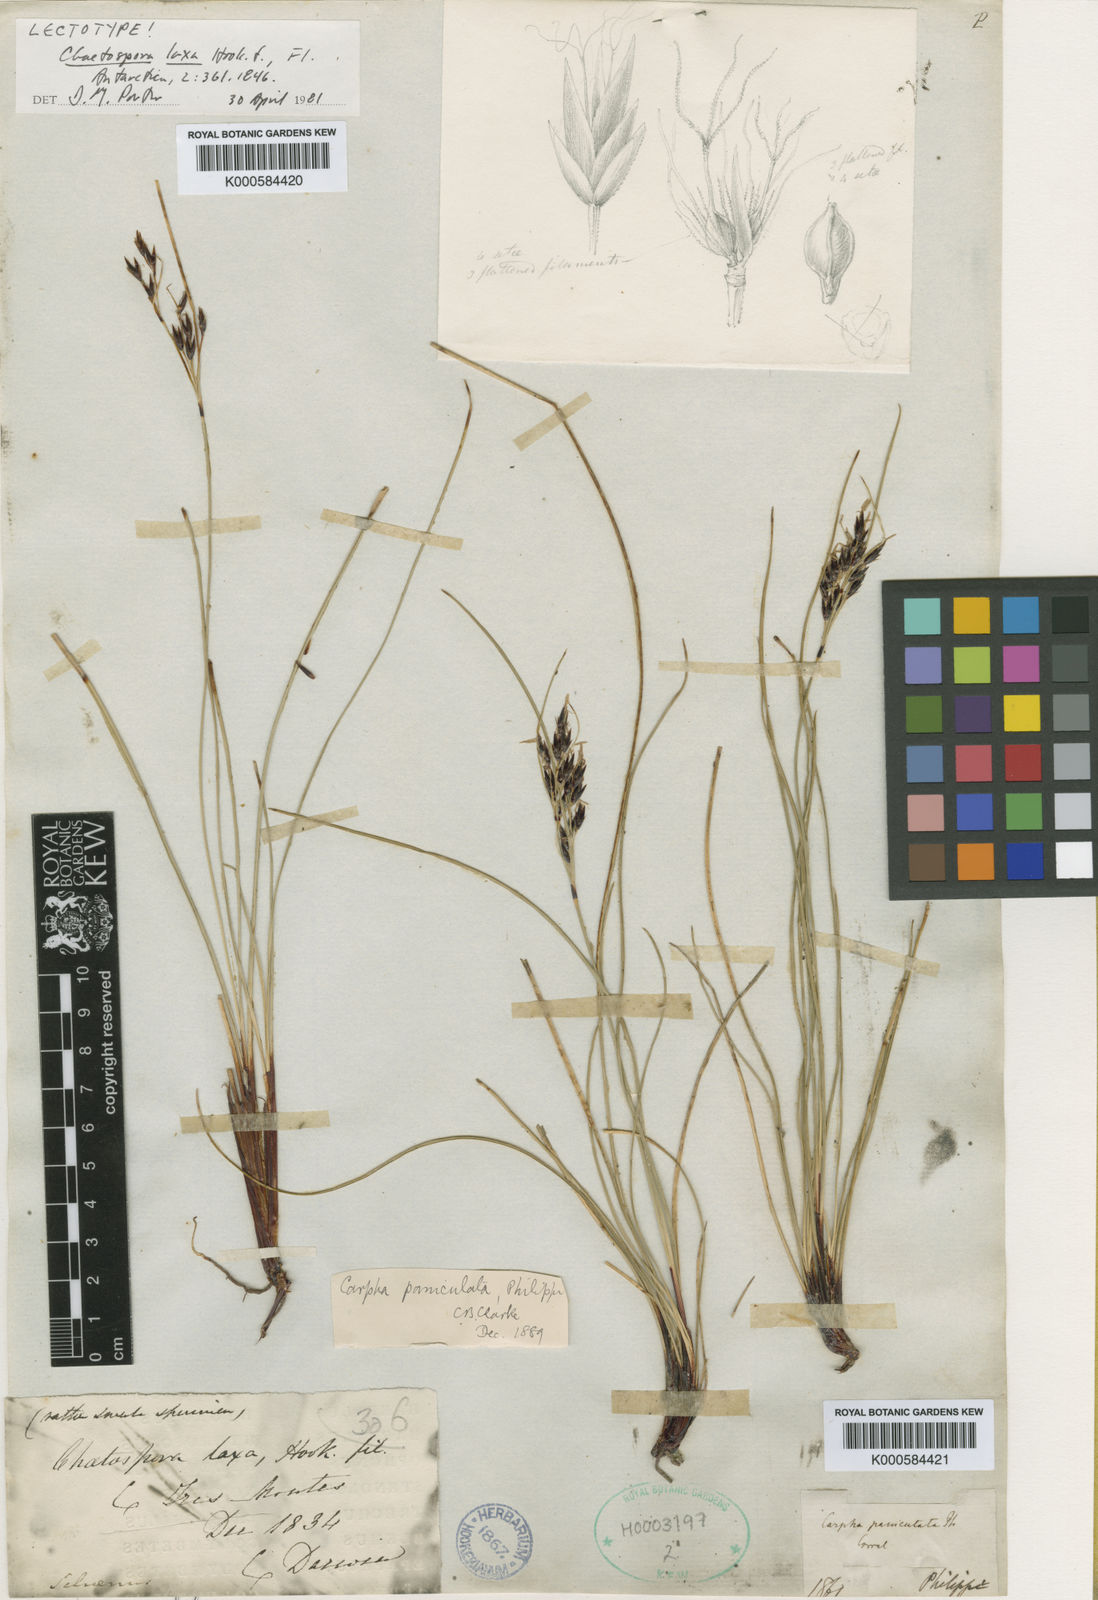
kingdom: Plantae
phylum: Tracheophyta
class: Liliopsida
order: Poales
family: Cyperaceae
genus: Schoenus
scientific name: Schoenus
